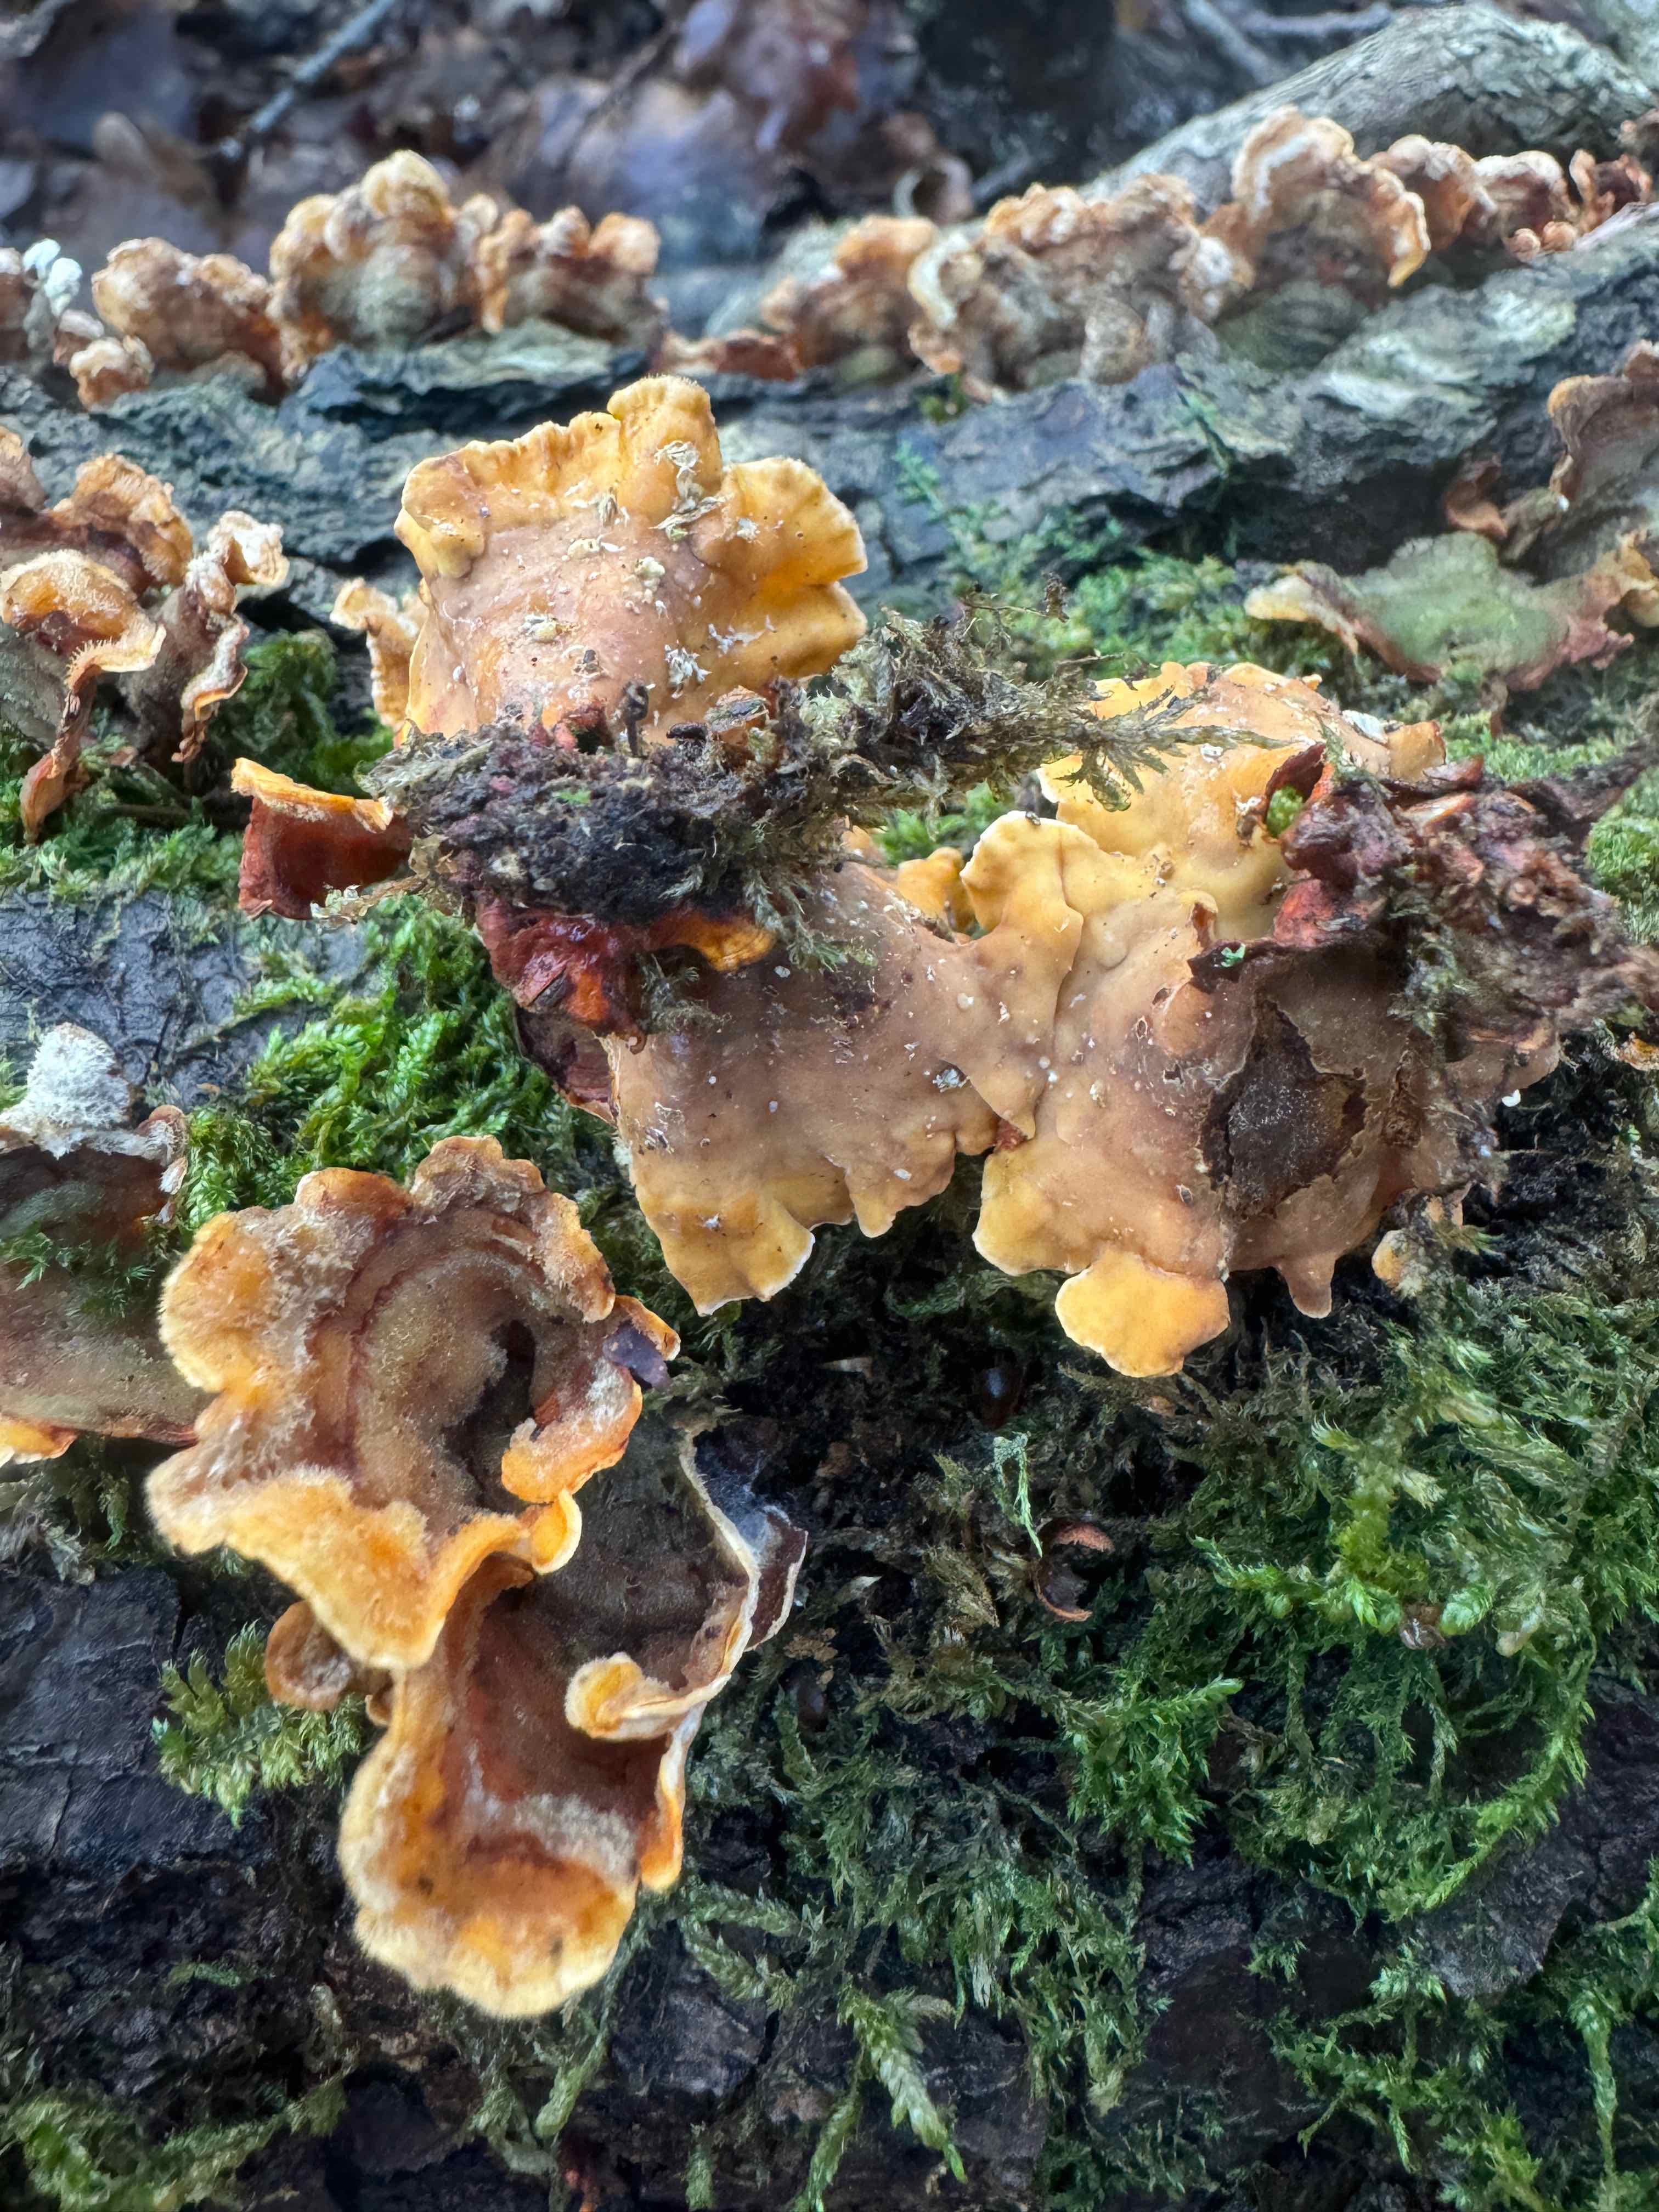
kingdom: Fungi
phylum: Basidiomycota
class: Agaricomycetes
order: Russulales
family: Stereaceae
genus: Stereum
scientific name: Stereum hirsutum
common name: håret lædersvamp
